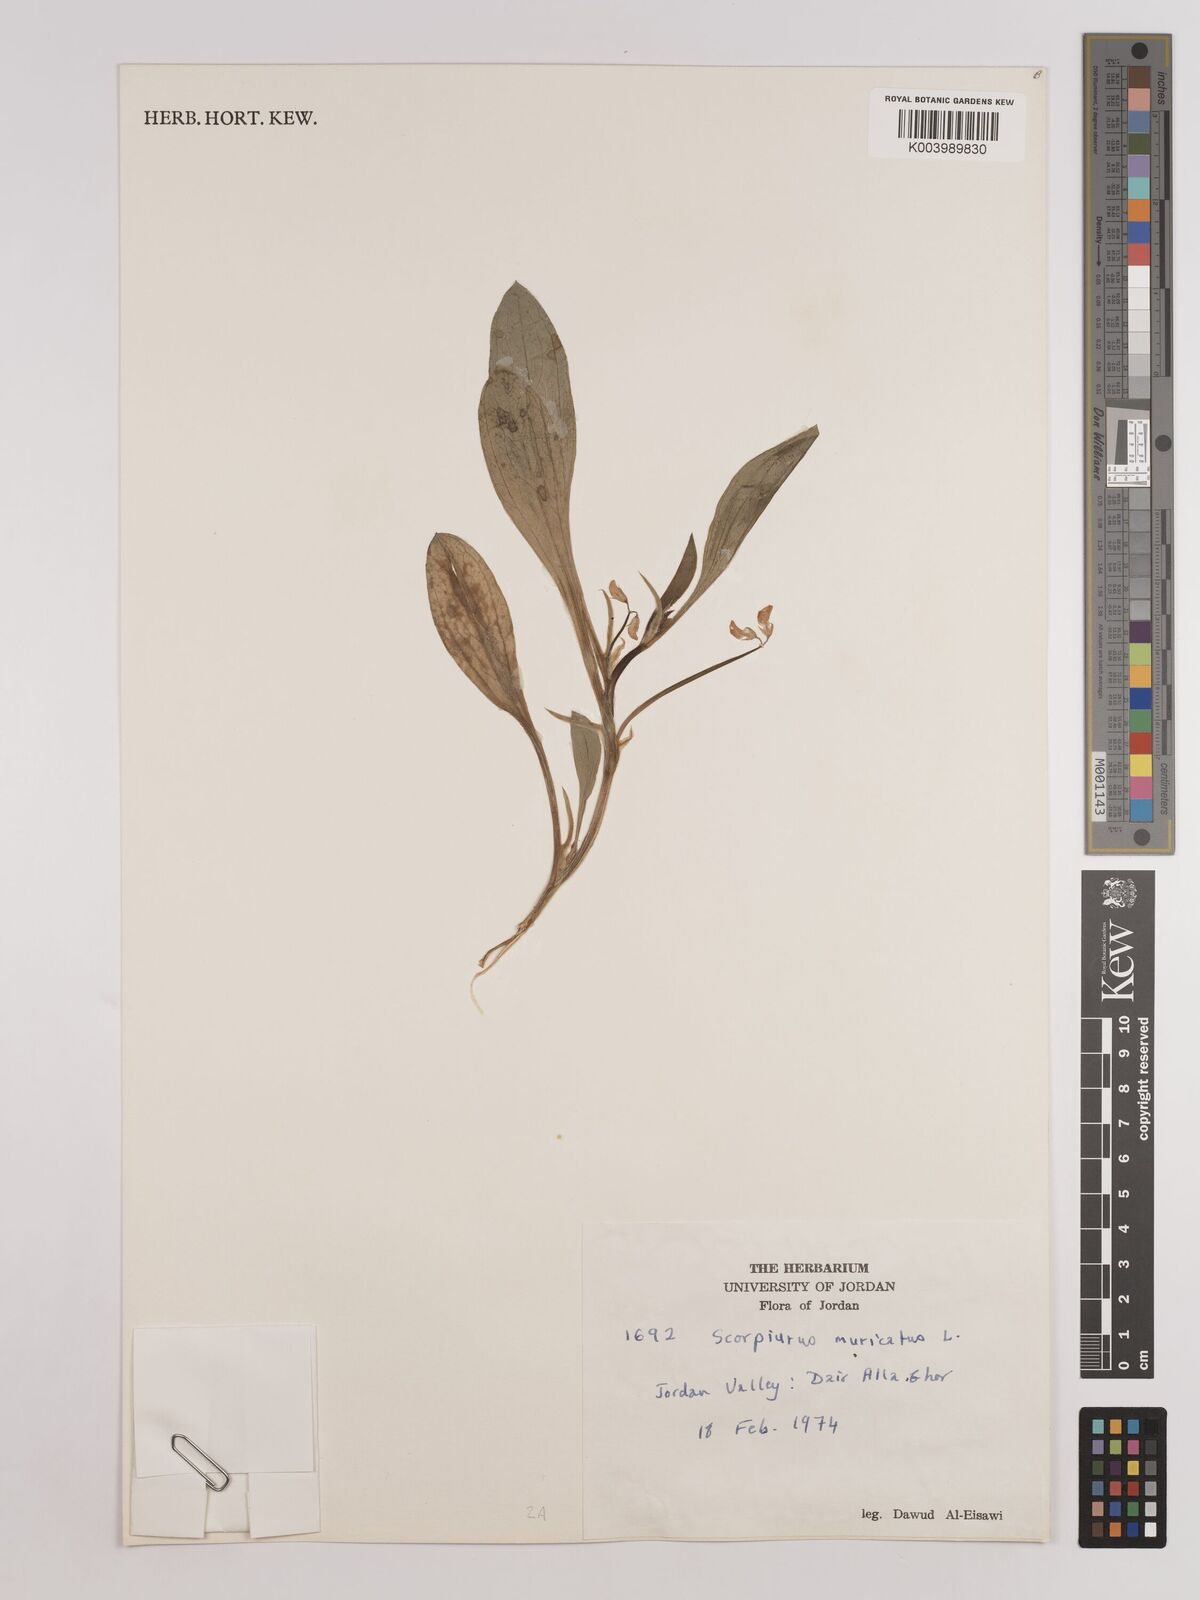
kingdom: Plantae
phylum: Tracheophyta
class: Magnoliopsida
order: Fabales
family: Fabaceae
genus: Scorpiurus
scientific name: Scorpiurus muricatus
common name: Caterpillar-plant
